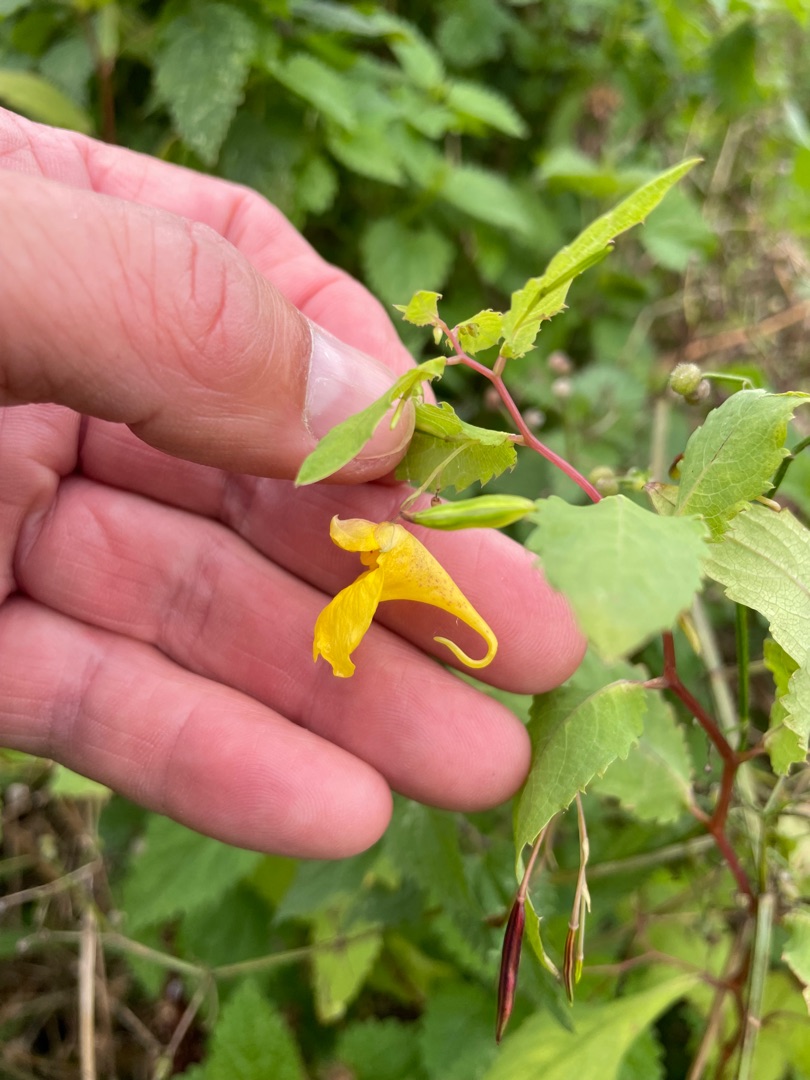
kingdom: Plantae
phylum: Tracheophyta
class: Magnoliopsida
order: Ericales
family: Balsaminaceae
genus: Impatiens
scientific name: Impatiens noli-tangere
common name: Spring-balsamin
